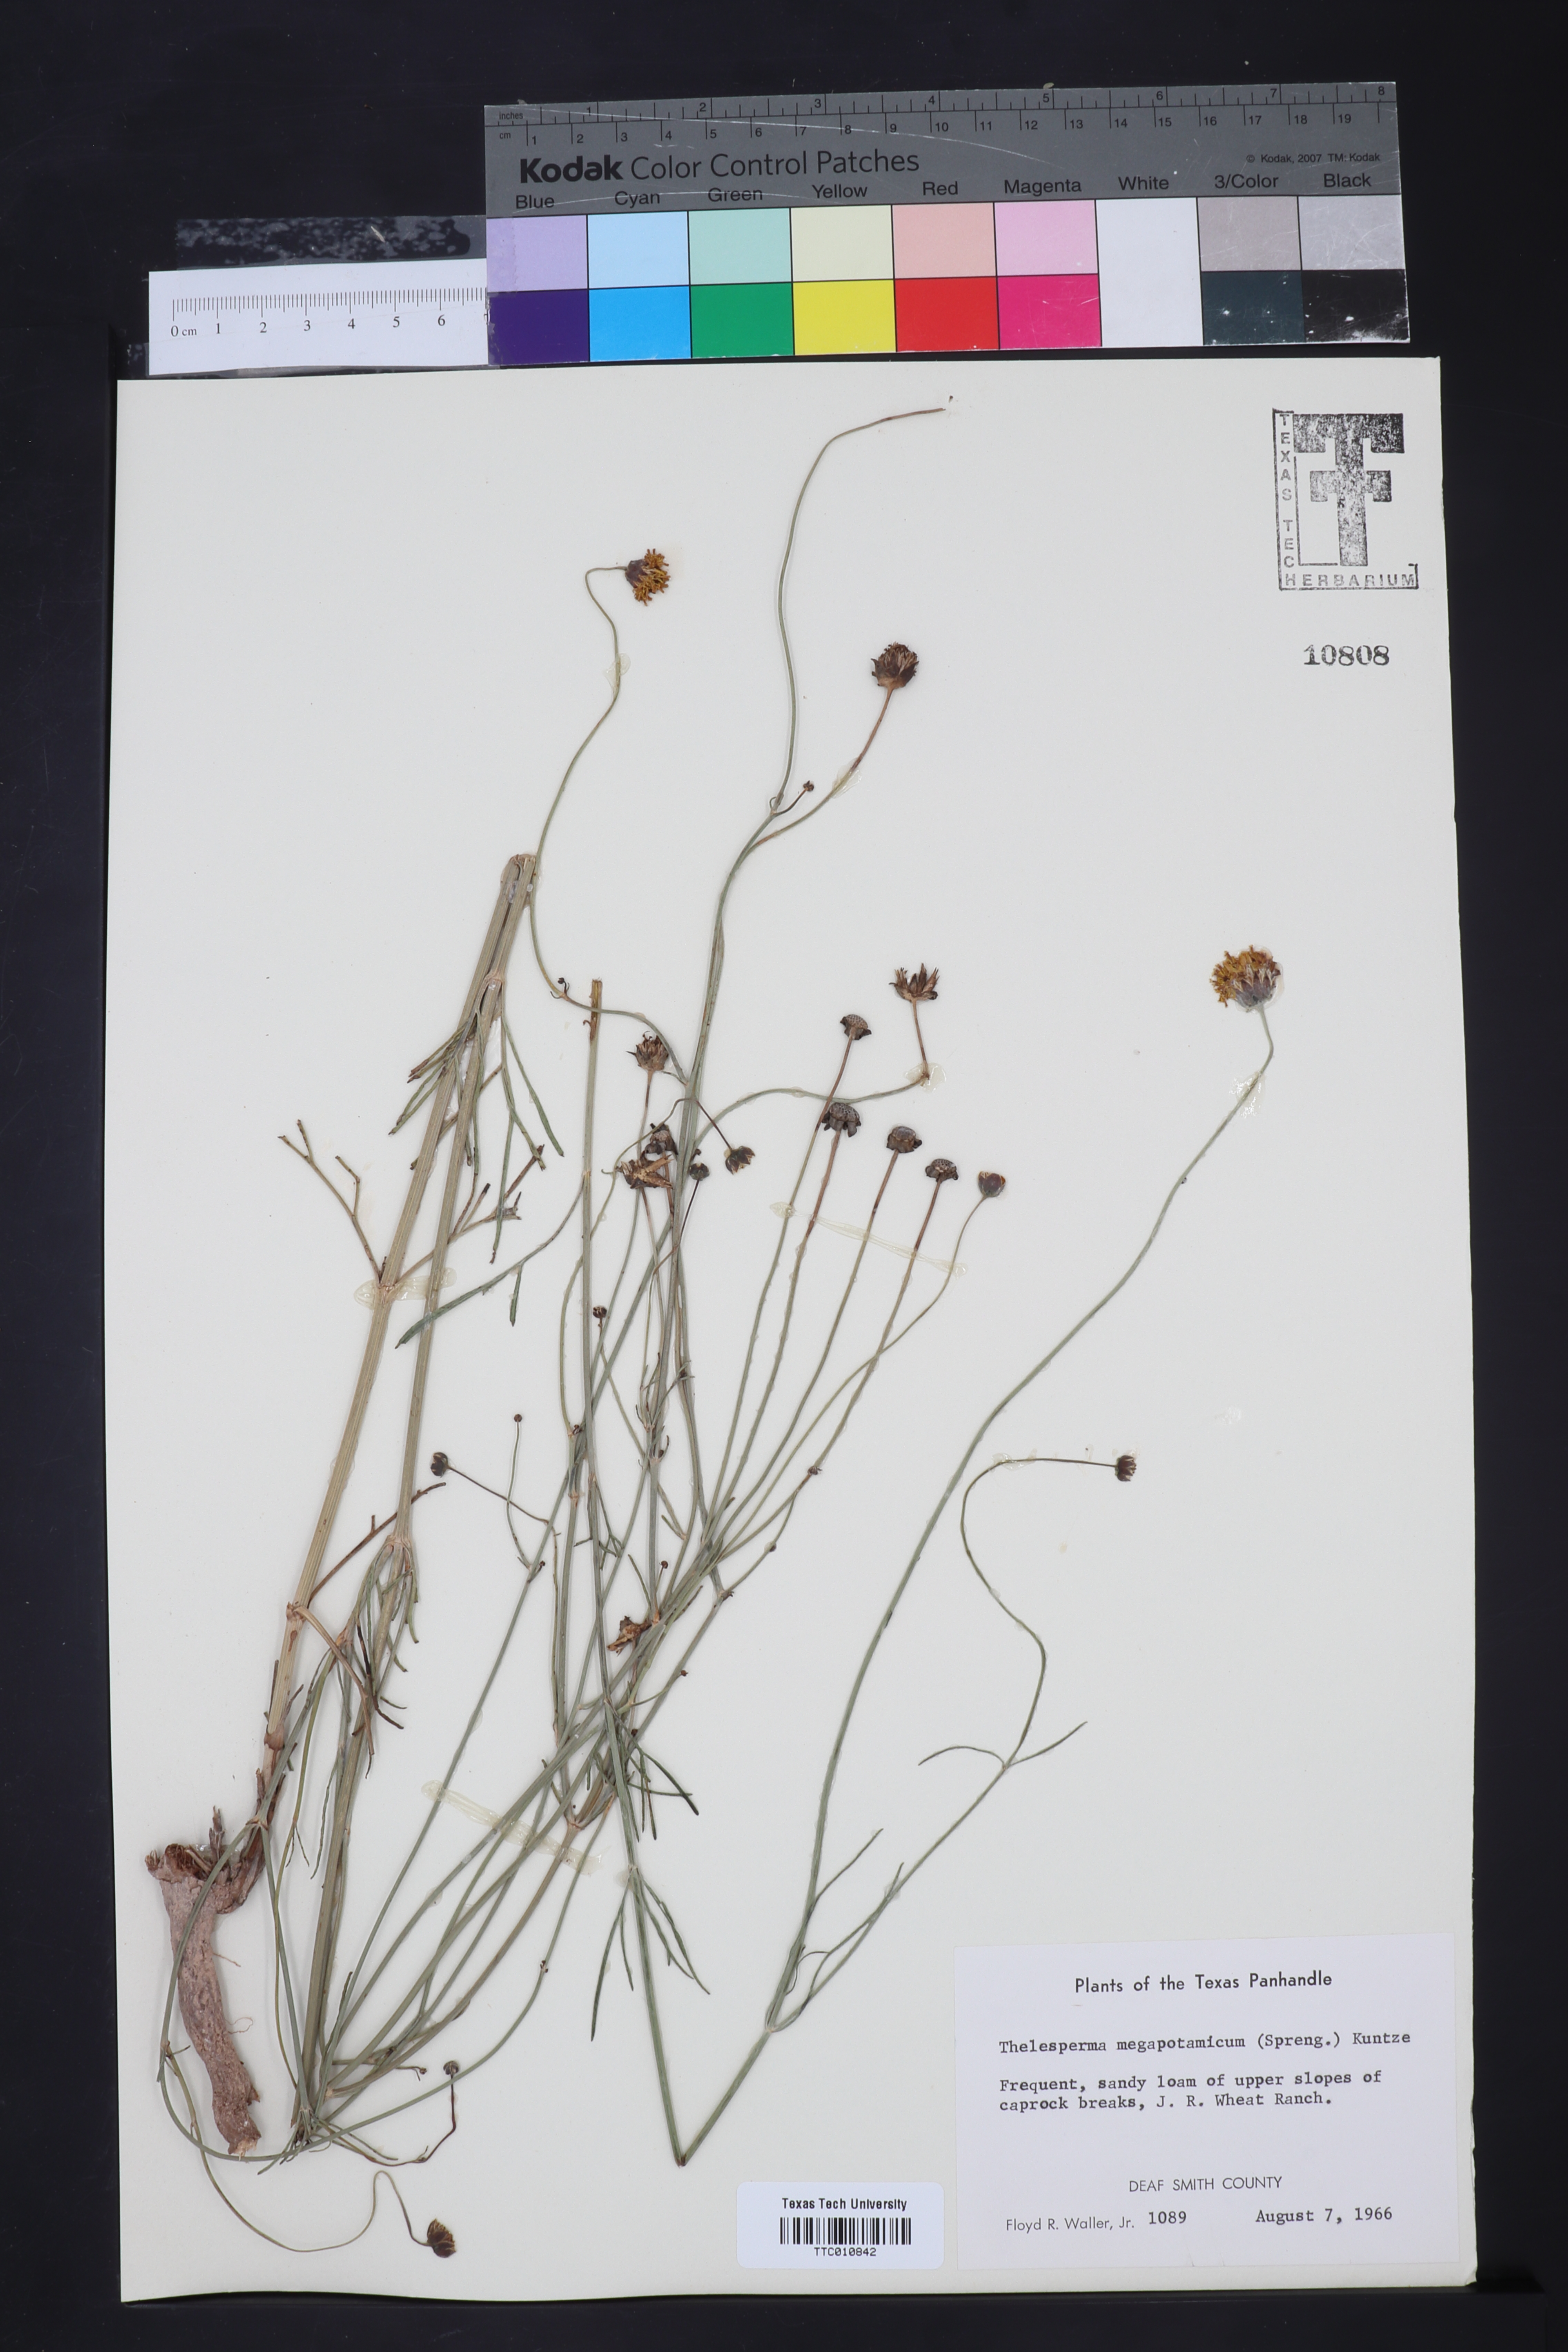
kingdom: Plantae
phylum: Tracheophyta
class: Magnoliopsida
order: Asterales
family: Asteraceae
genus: Thelesperma
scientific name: Thelesperma megapotamicum
